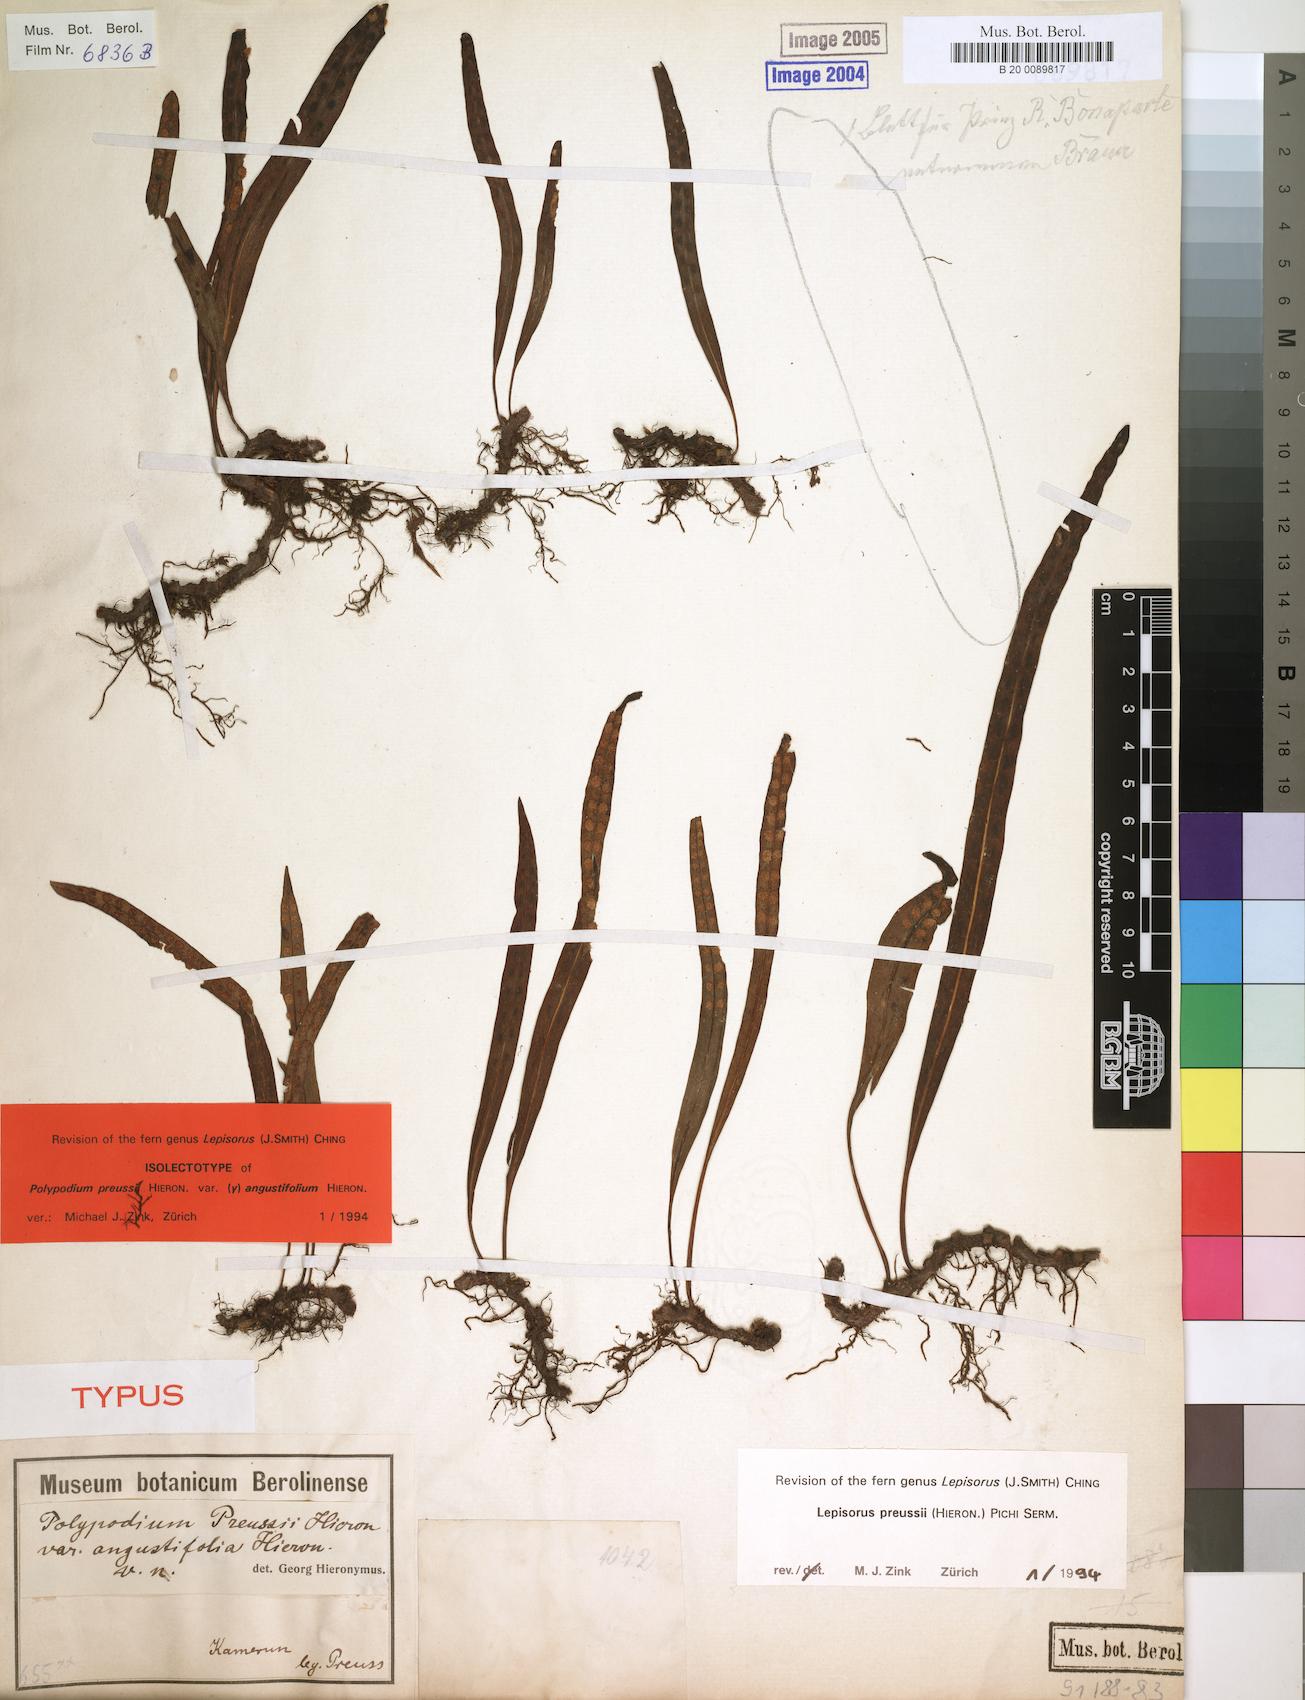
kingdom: Plantae
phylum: Tracheophyta
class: Polypodiopsida
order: Polypodiales
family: Polypodiaceae
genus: Lepisorus
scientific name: Lepisorus excavatus
